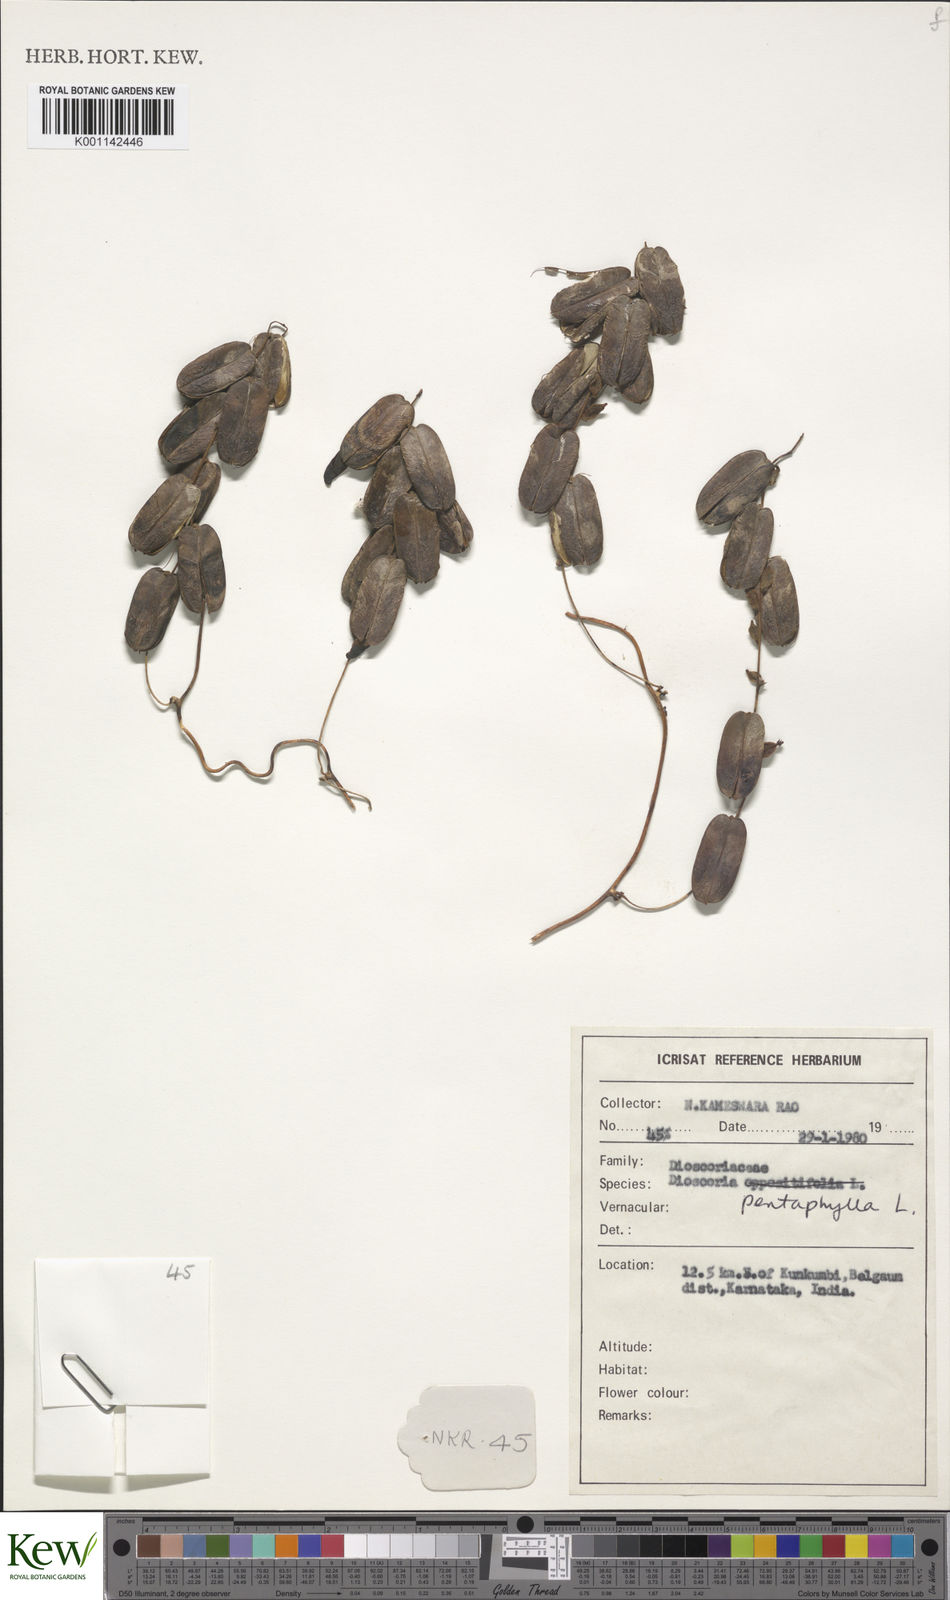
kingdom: Plantae
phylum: Tracheophyta
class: Liliopsida
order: Dioscoreales
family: Dioscoreaceae
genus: Dioscorea
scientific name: Dioscorea pentaphylla
